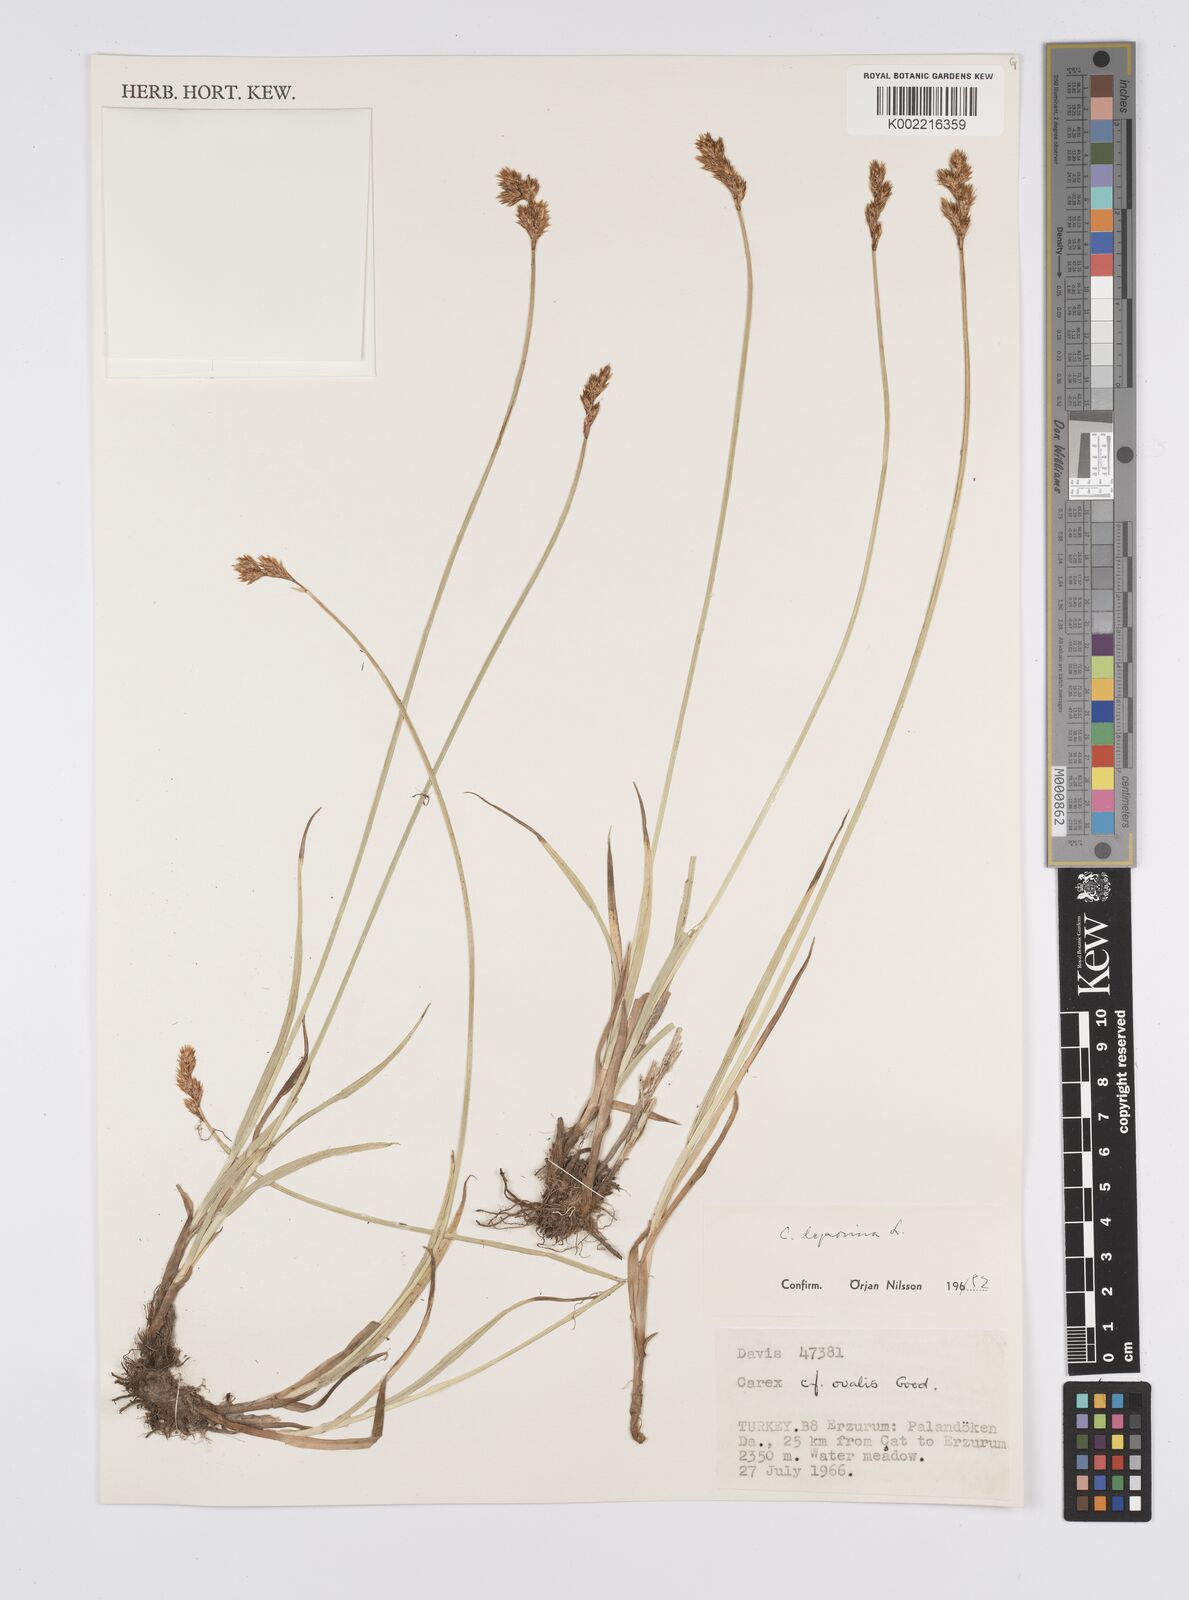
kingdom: Plantae
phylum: Tracheophyta
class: Liliopsida
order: Poales
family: Cyperaceae
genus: Carex
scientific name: Carex leporina
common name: Oval sedge
